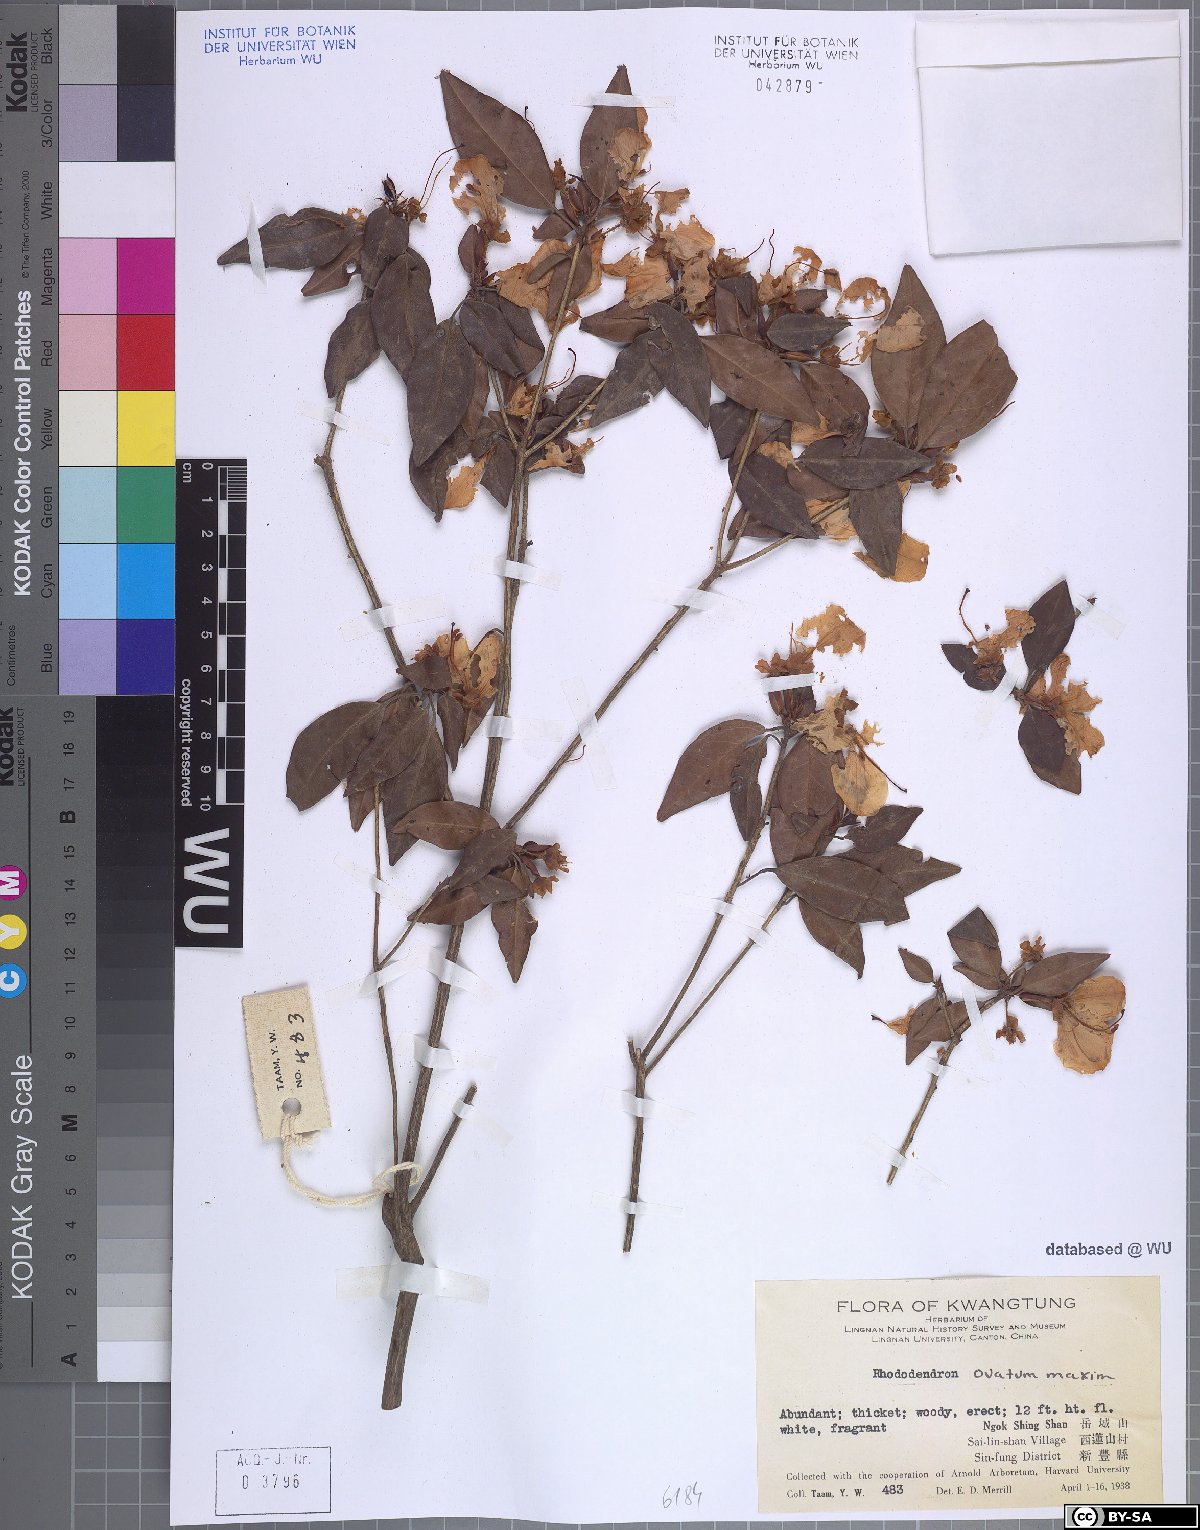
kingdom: Plantae
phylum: Tracheophyta
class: Magnoliopsida
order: Ericales
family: Ericaceae
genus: Rhododendron
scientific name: Rhododendron ovatum
